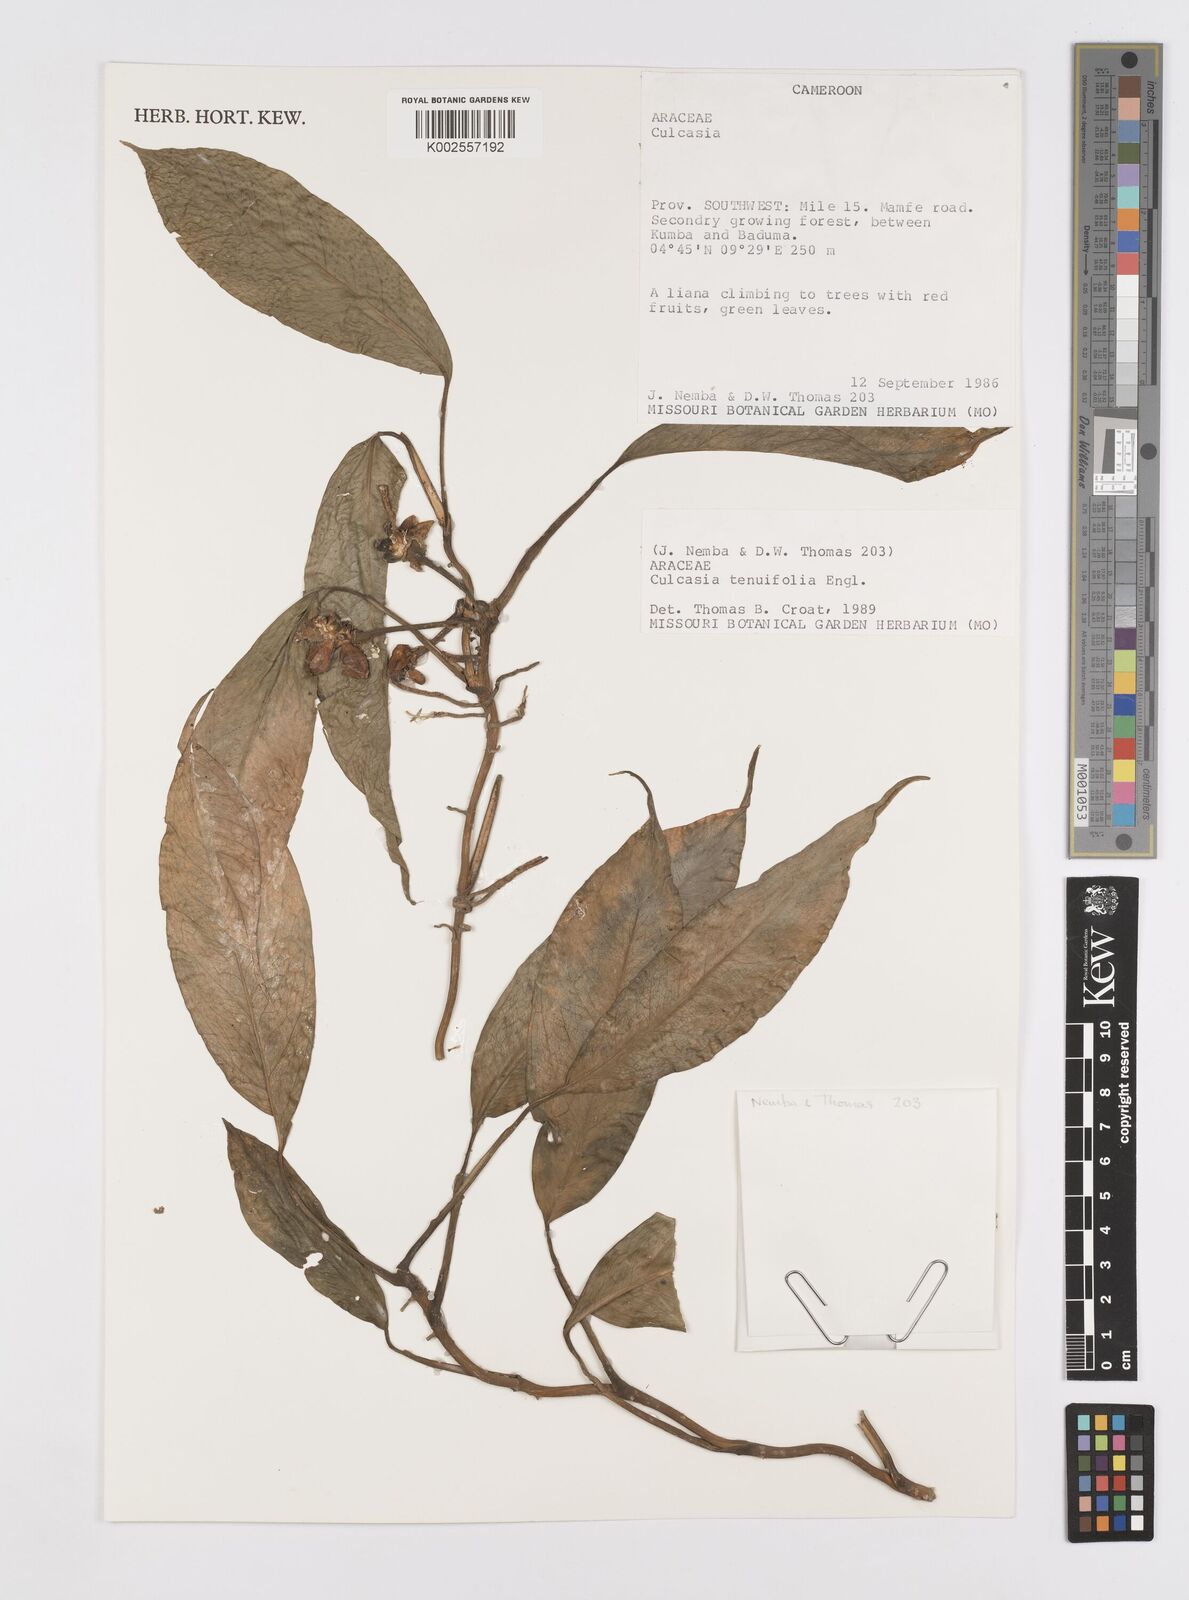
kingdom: Plantae
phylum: Tracheophyta
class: Liliopsida
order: Alismatales
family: Araceae
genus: Culcasia
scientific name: Culcasia tenuifolia
